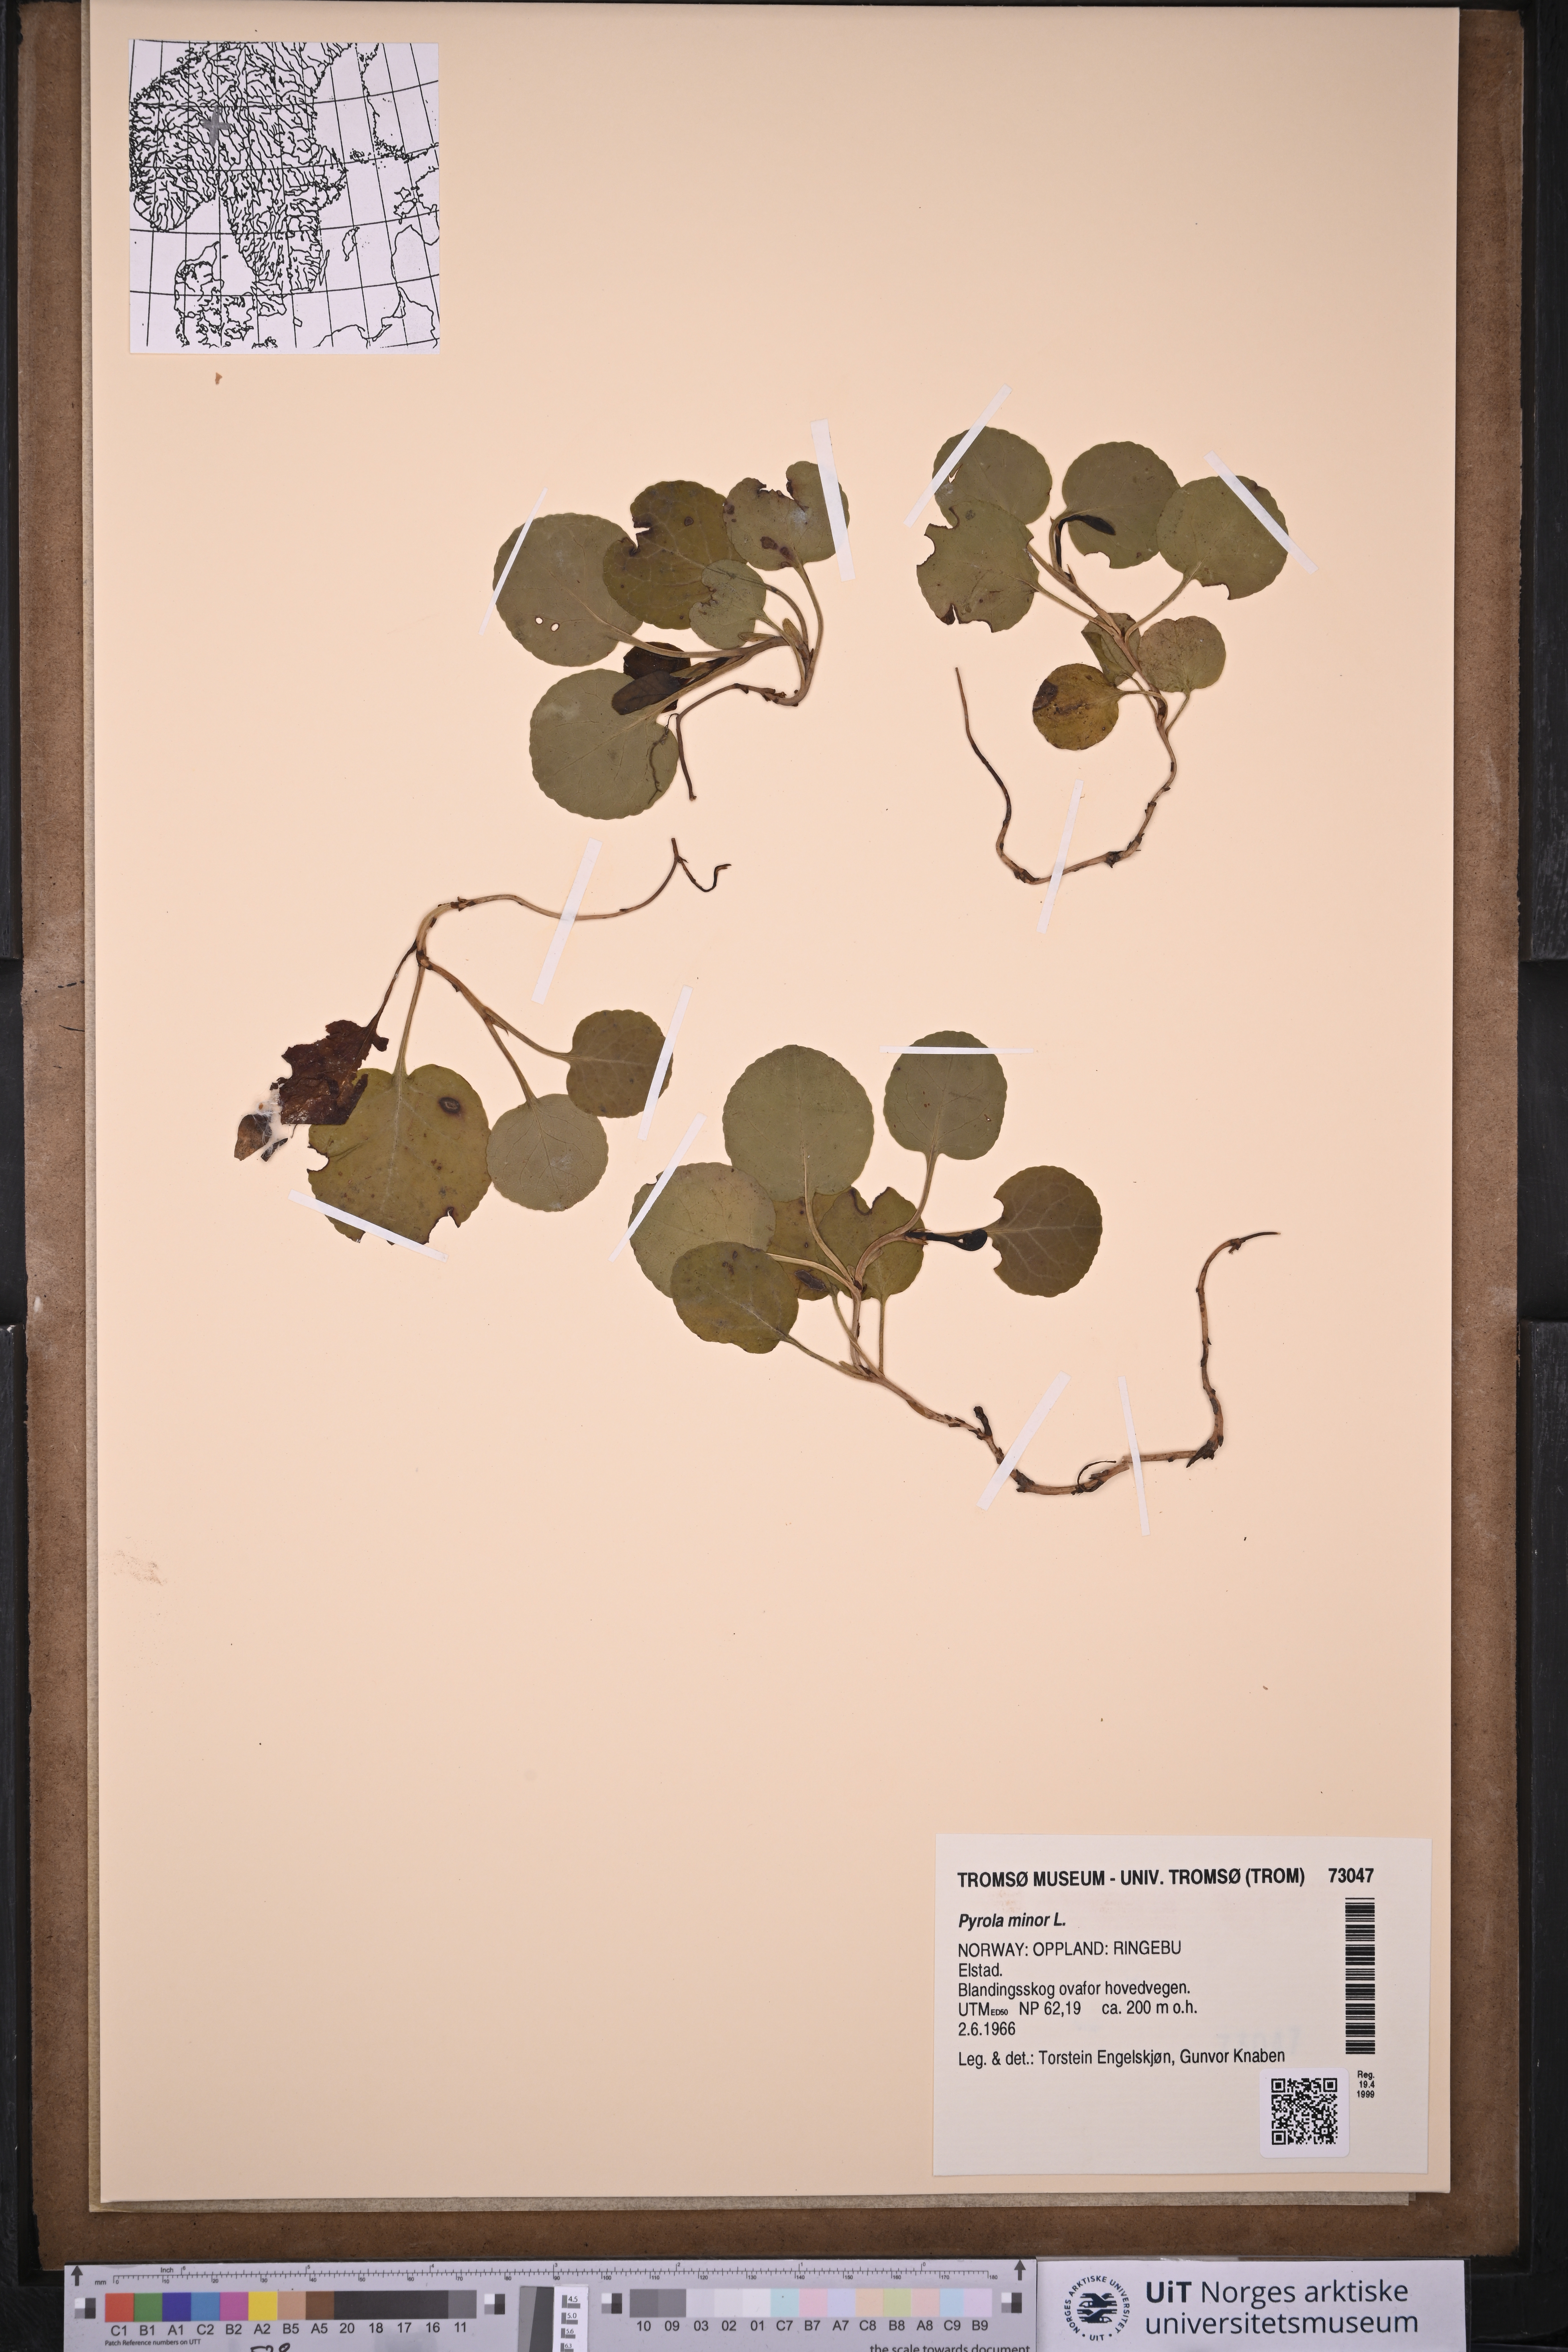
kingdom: Plantae
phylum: Tracheophyta
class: Magnoliopsida
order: Ericales
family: Ericaceae
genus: Pyrola
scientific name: Pyrola minor
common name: Common wintergreen
